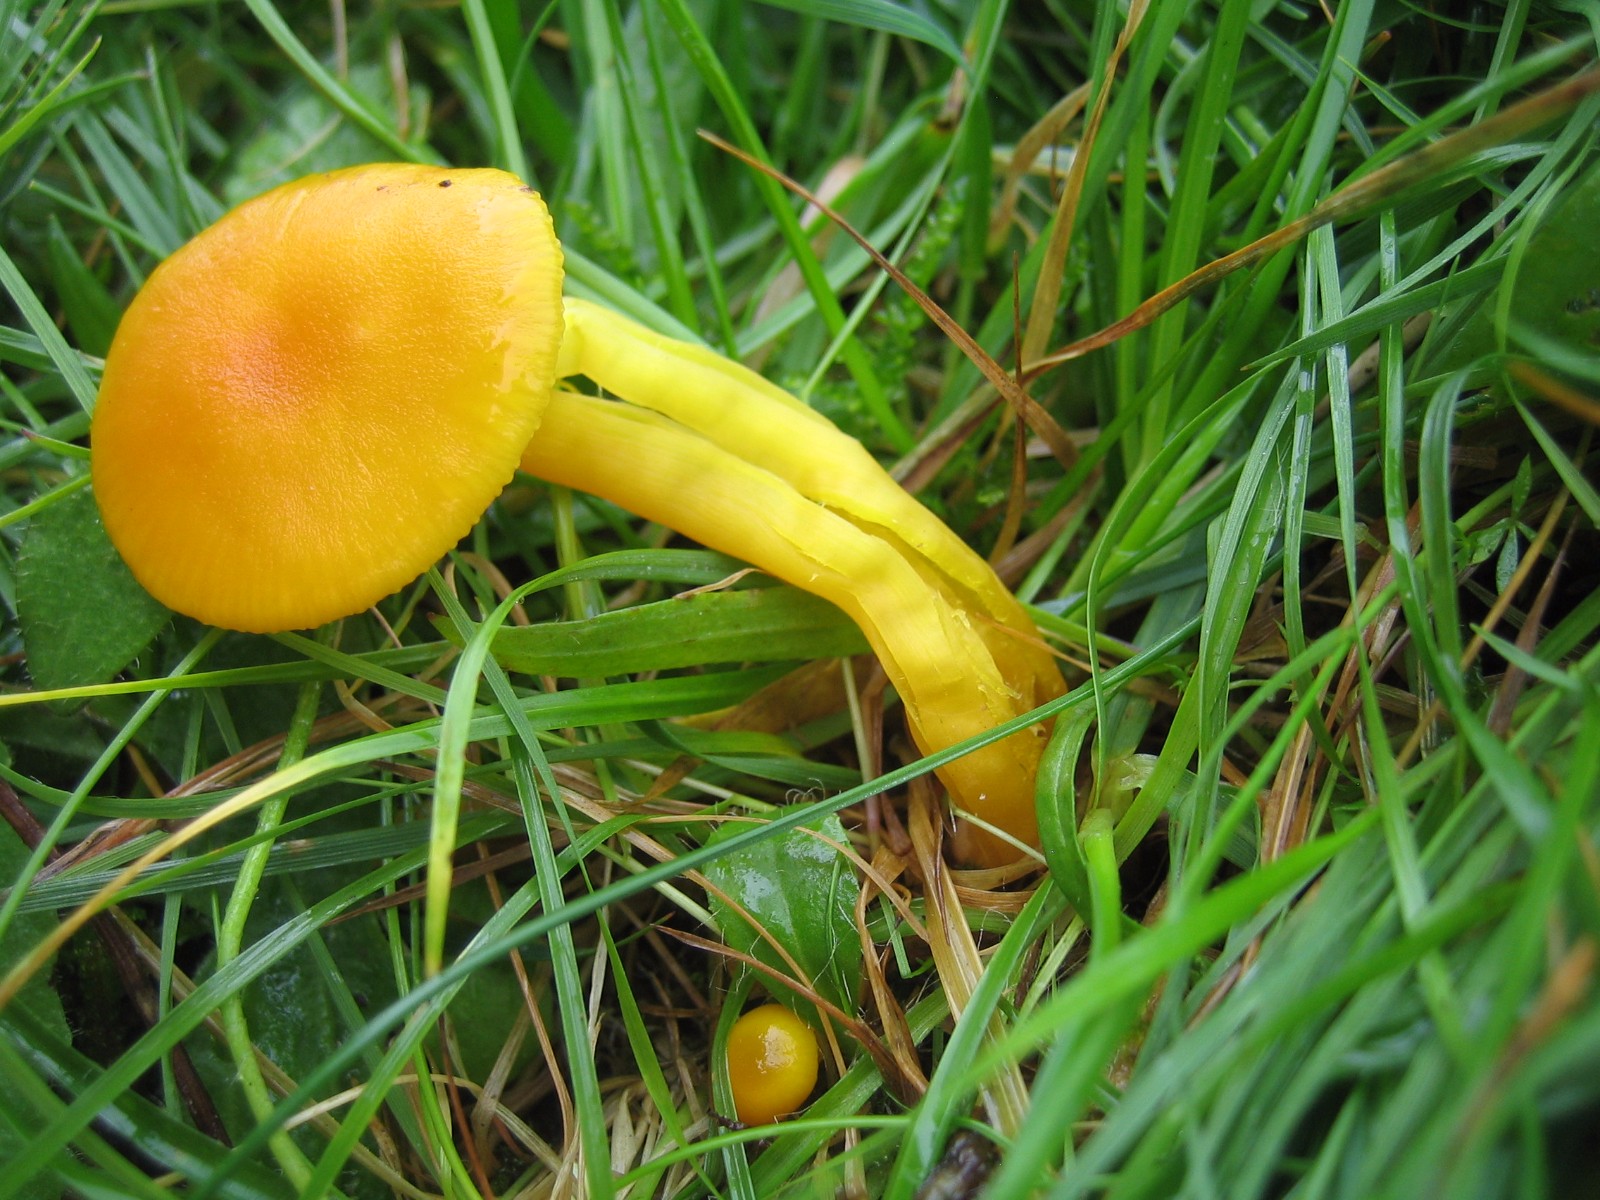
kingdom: Fungi
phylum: Basidiomycota
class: Agaricomycetes
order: Agaricales
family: Hygrophoraceae
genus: Hygrocybe
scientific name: Hygrocybe ceracea
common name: voksgul vokshat
